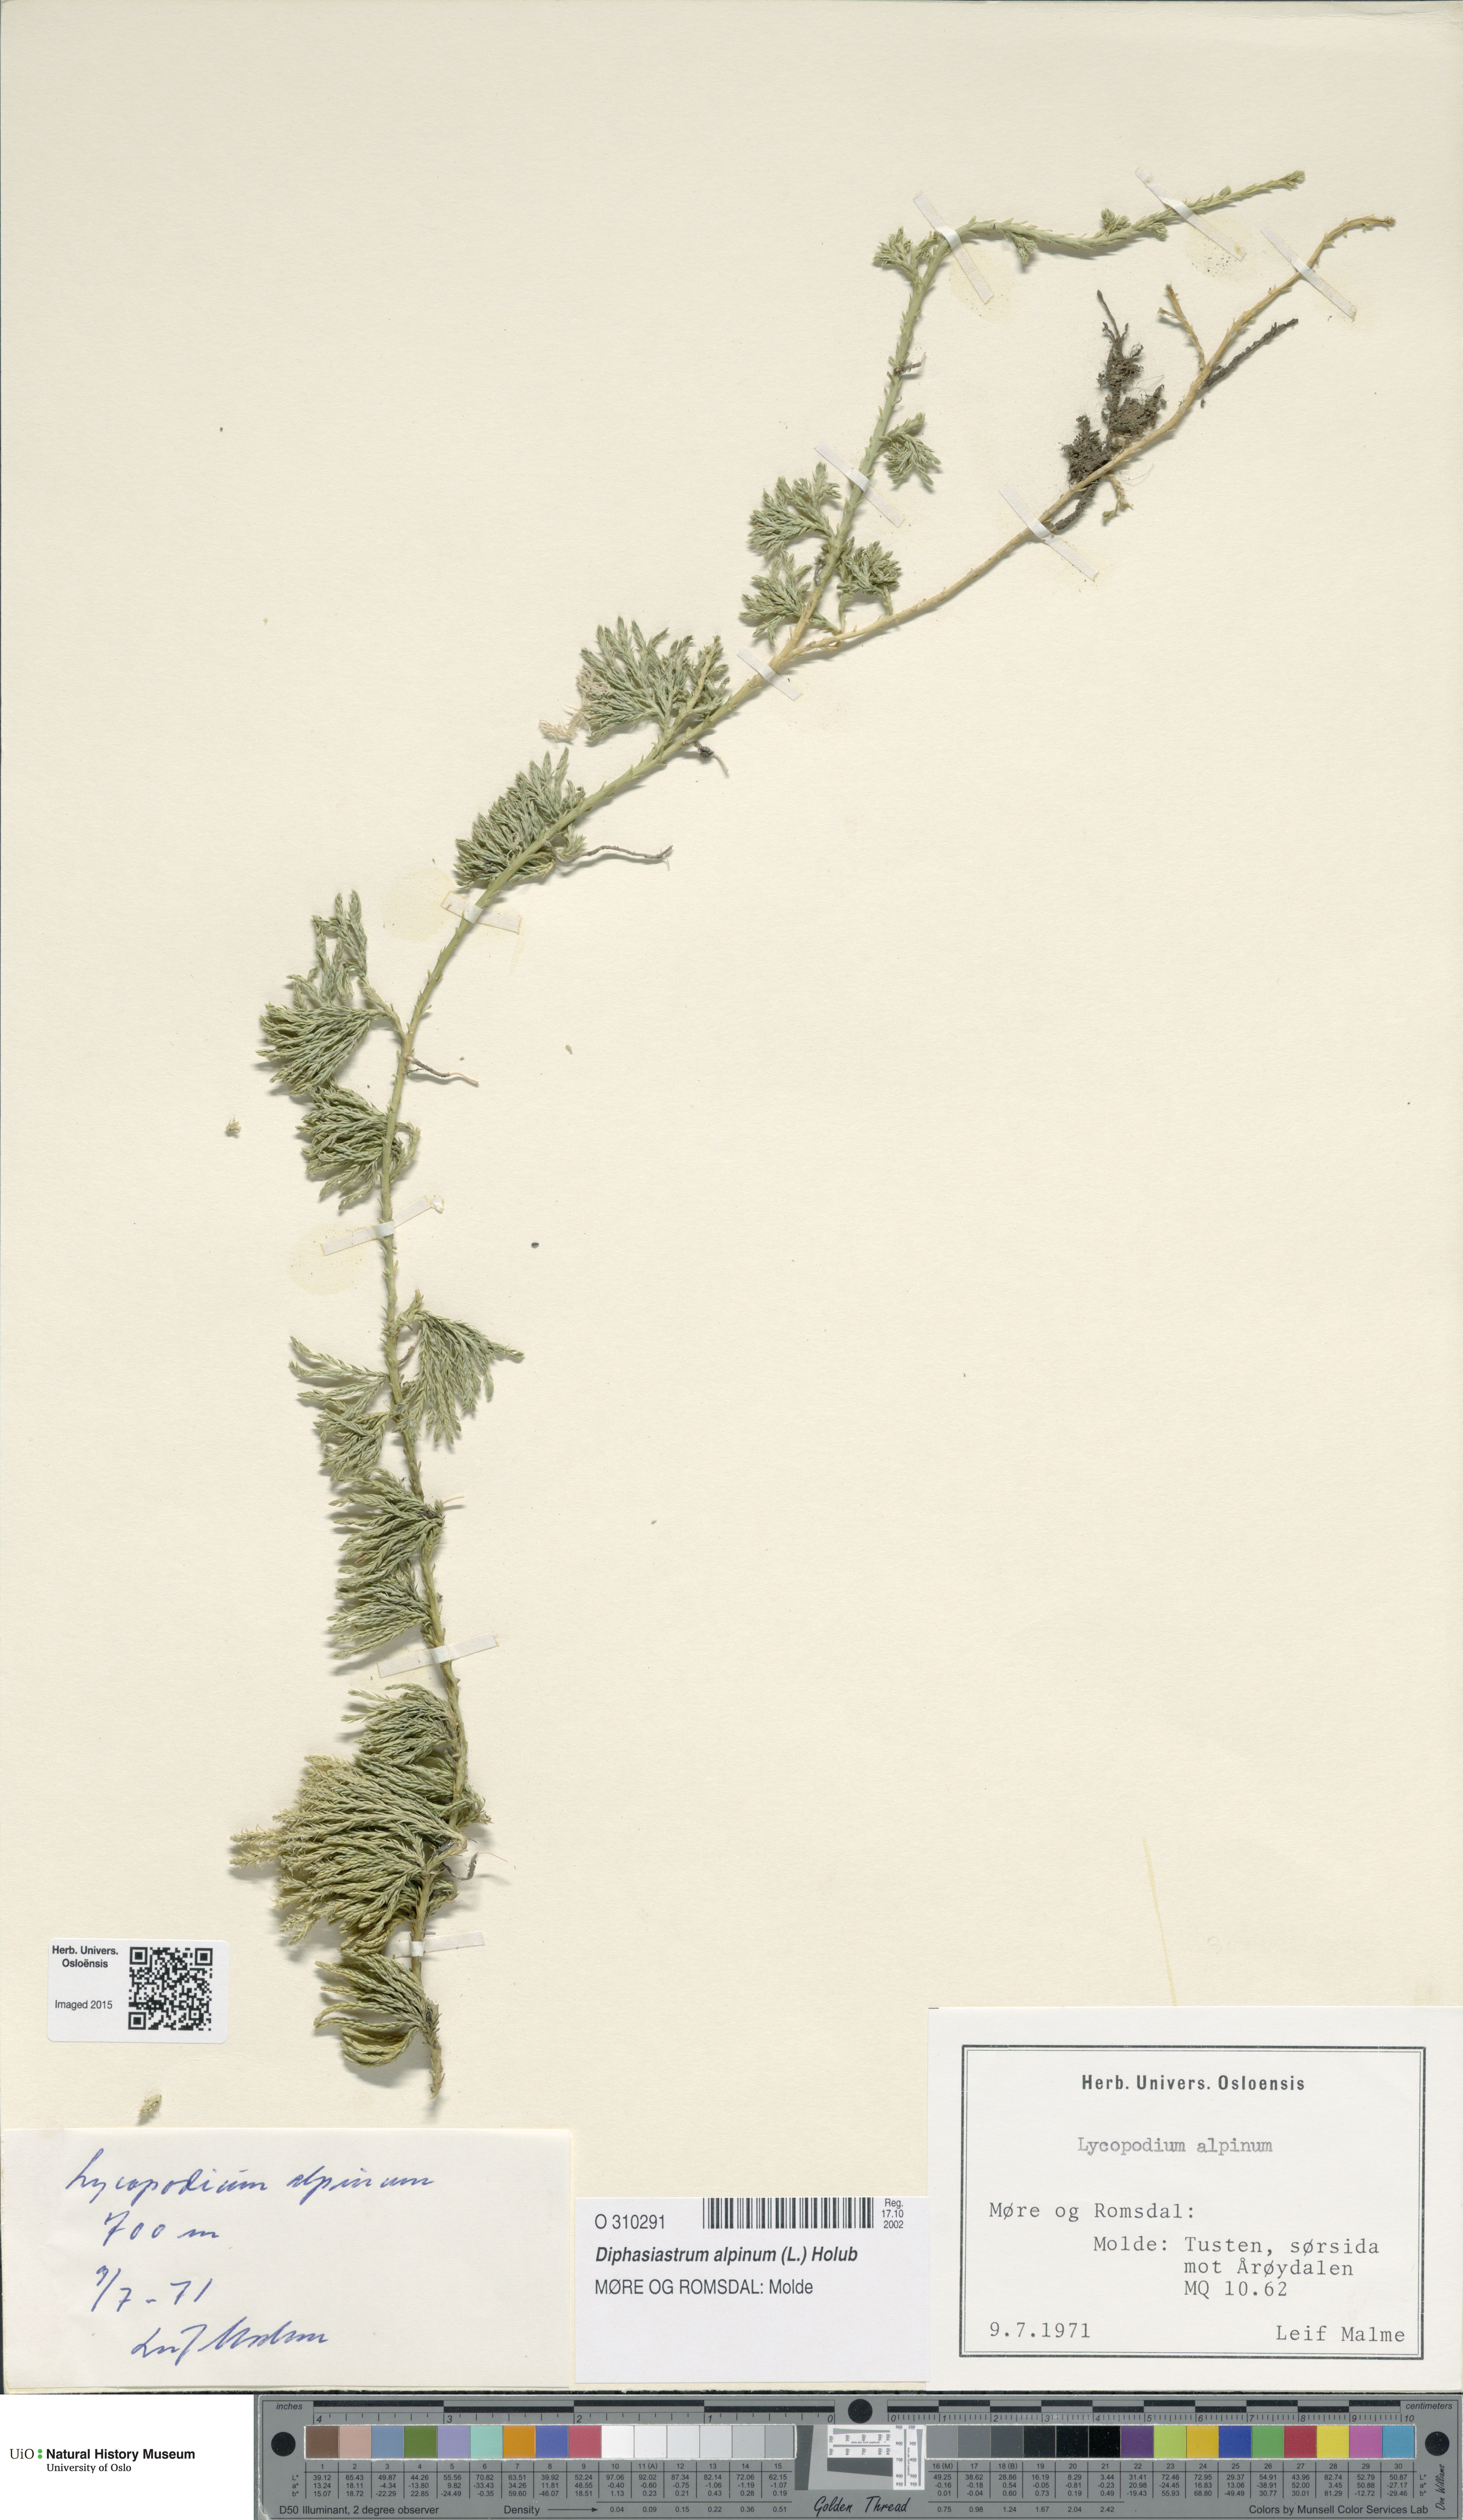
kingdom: Plantae
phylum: Tracheophyta
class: Lycopodiopsida
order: Lycopodiales
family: Lycopodiaceae
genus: Diphasiastrum
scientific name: Diphasiastrum alpinum
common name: Alpine clubmoss
